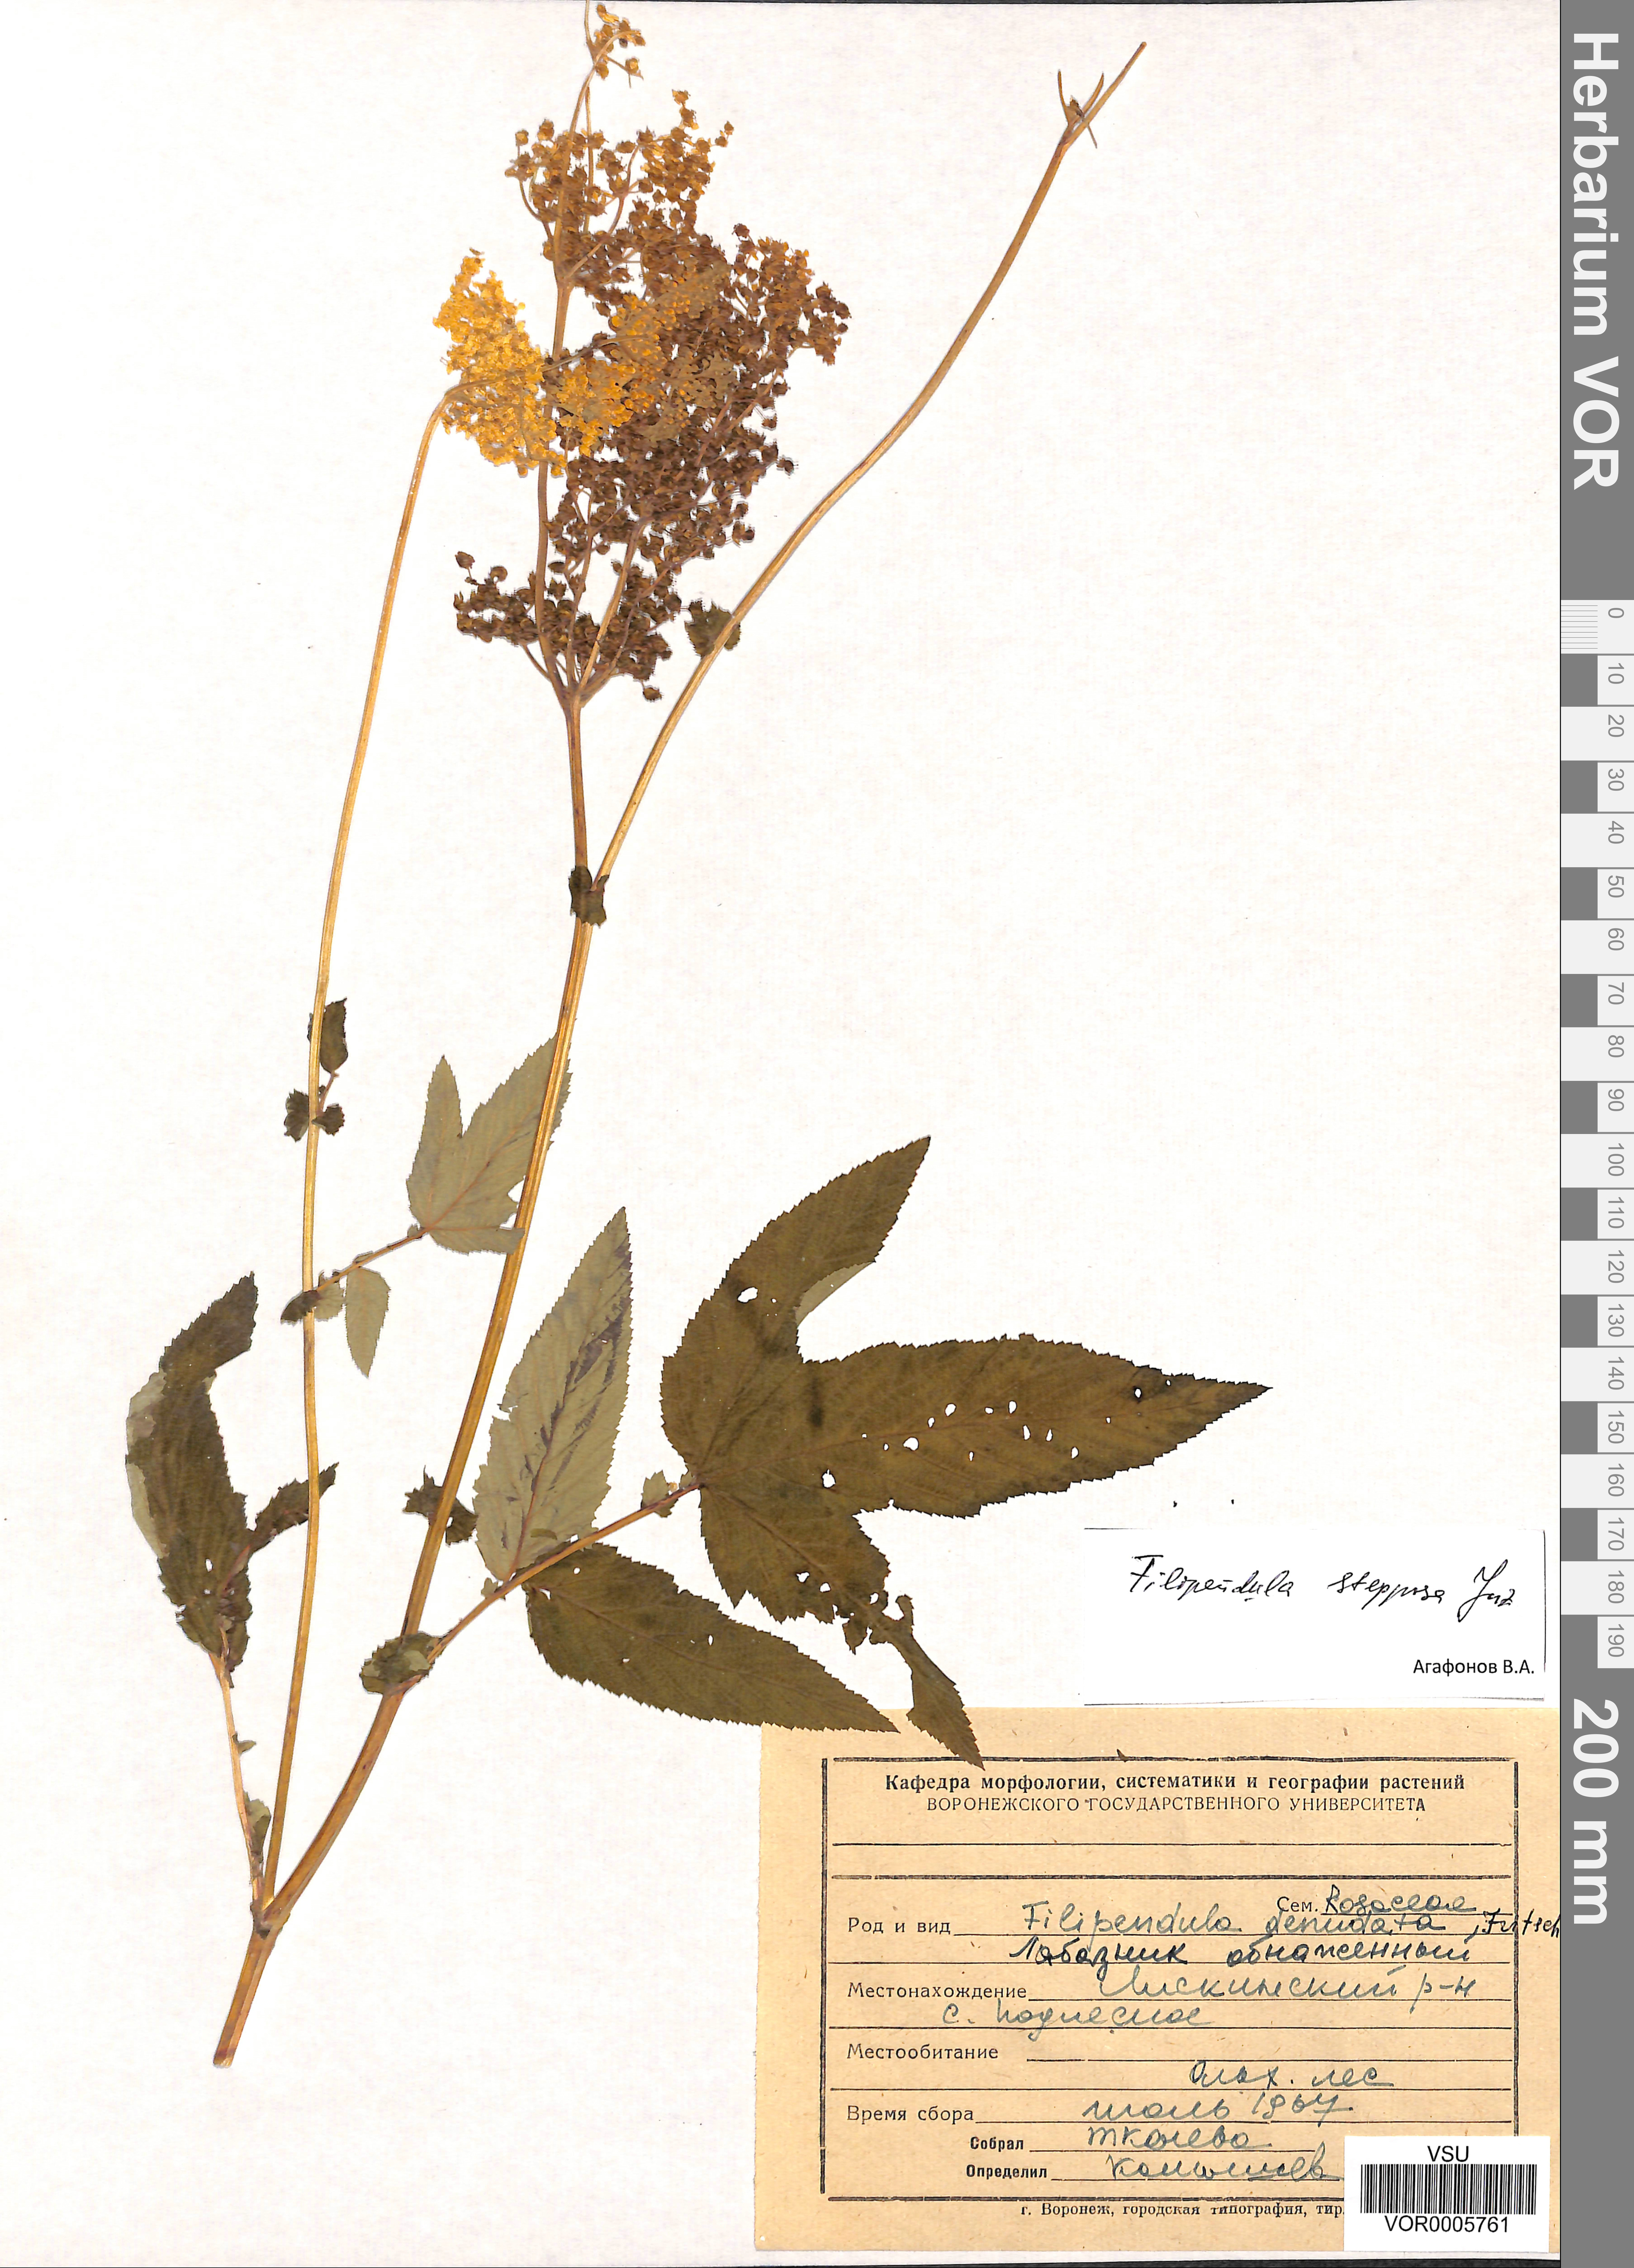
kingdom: Plantae
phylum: Tracheophyta
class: Magnoliopsida
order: Rosales
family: Rosaceae
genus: Filipendula
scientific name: Filipendula ulmaria
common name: Meadowsweet
